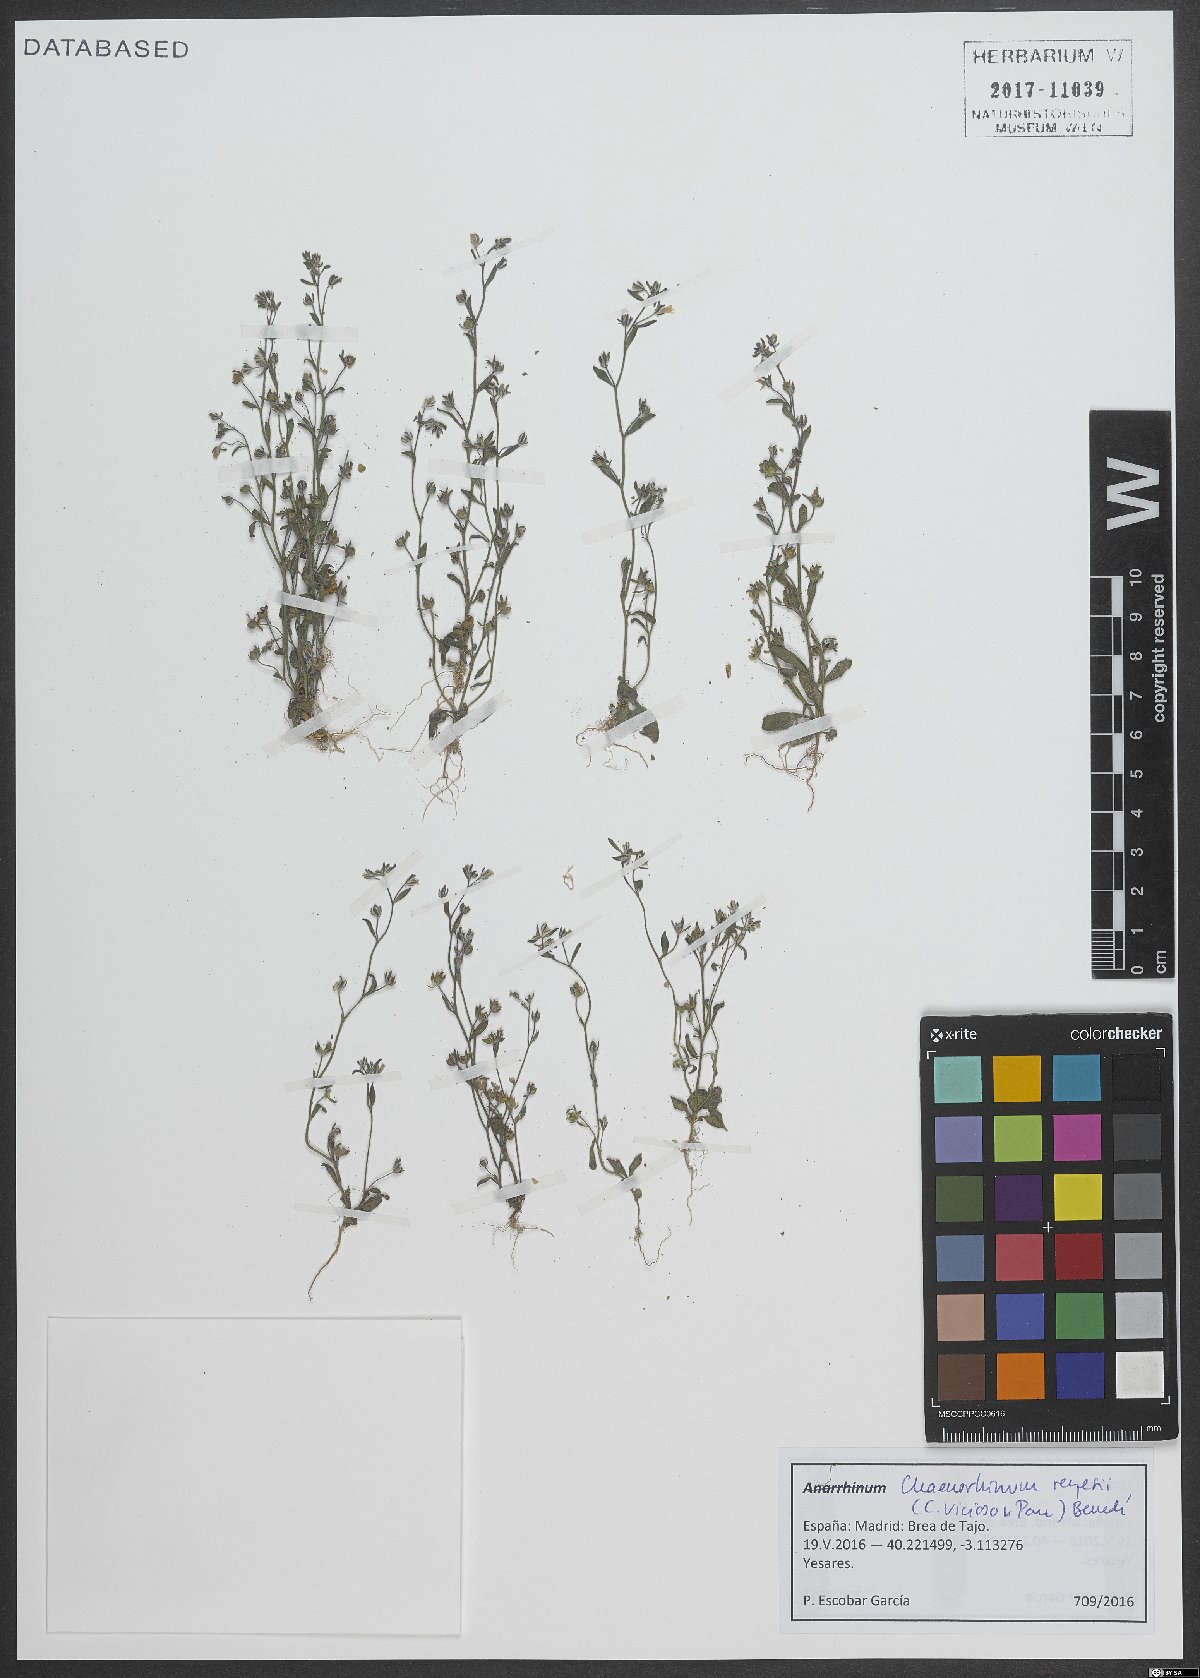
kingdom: Plantae
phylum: Tracheophyta
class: Magnoliopsida
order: Lamiales
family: Plantaginaceae
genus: Chaenorhinum
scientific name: Chaenorhinum reyesii
